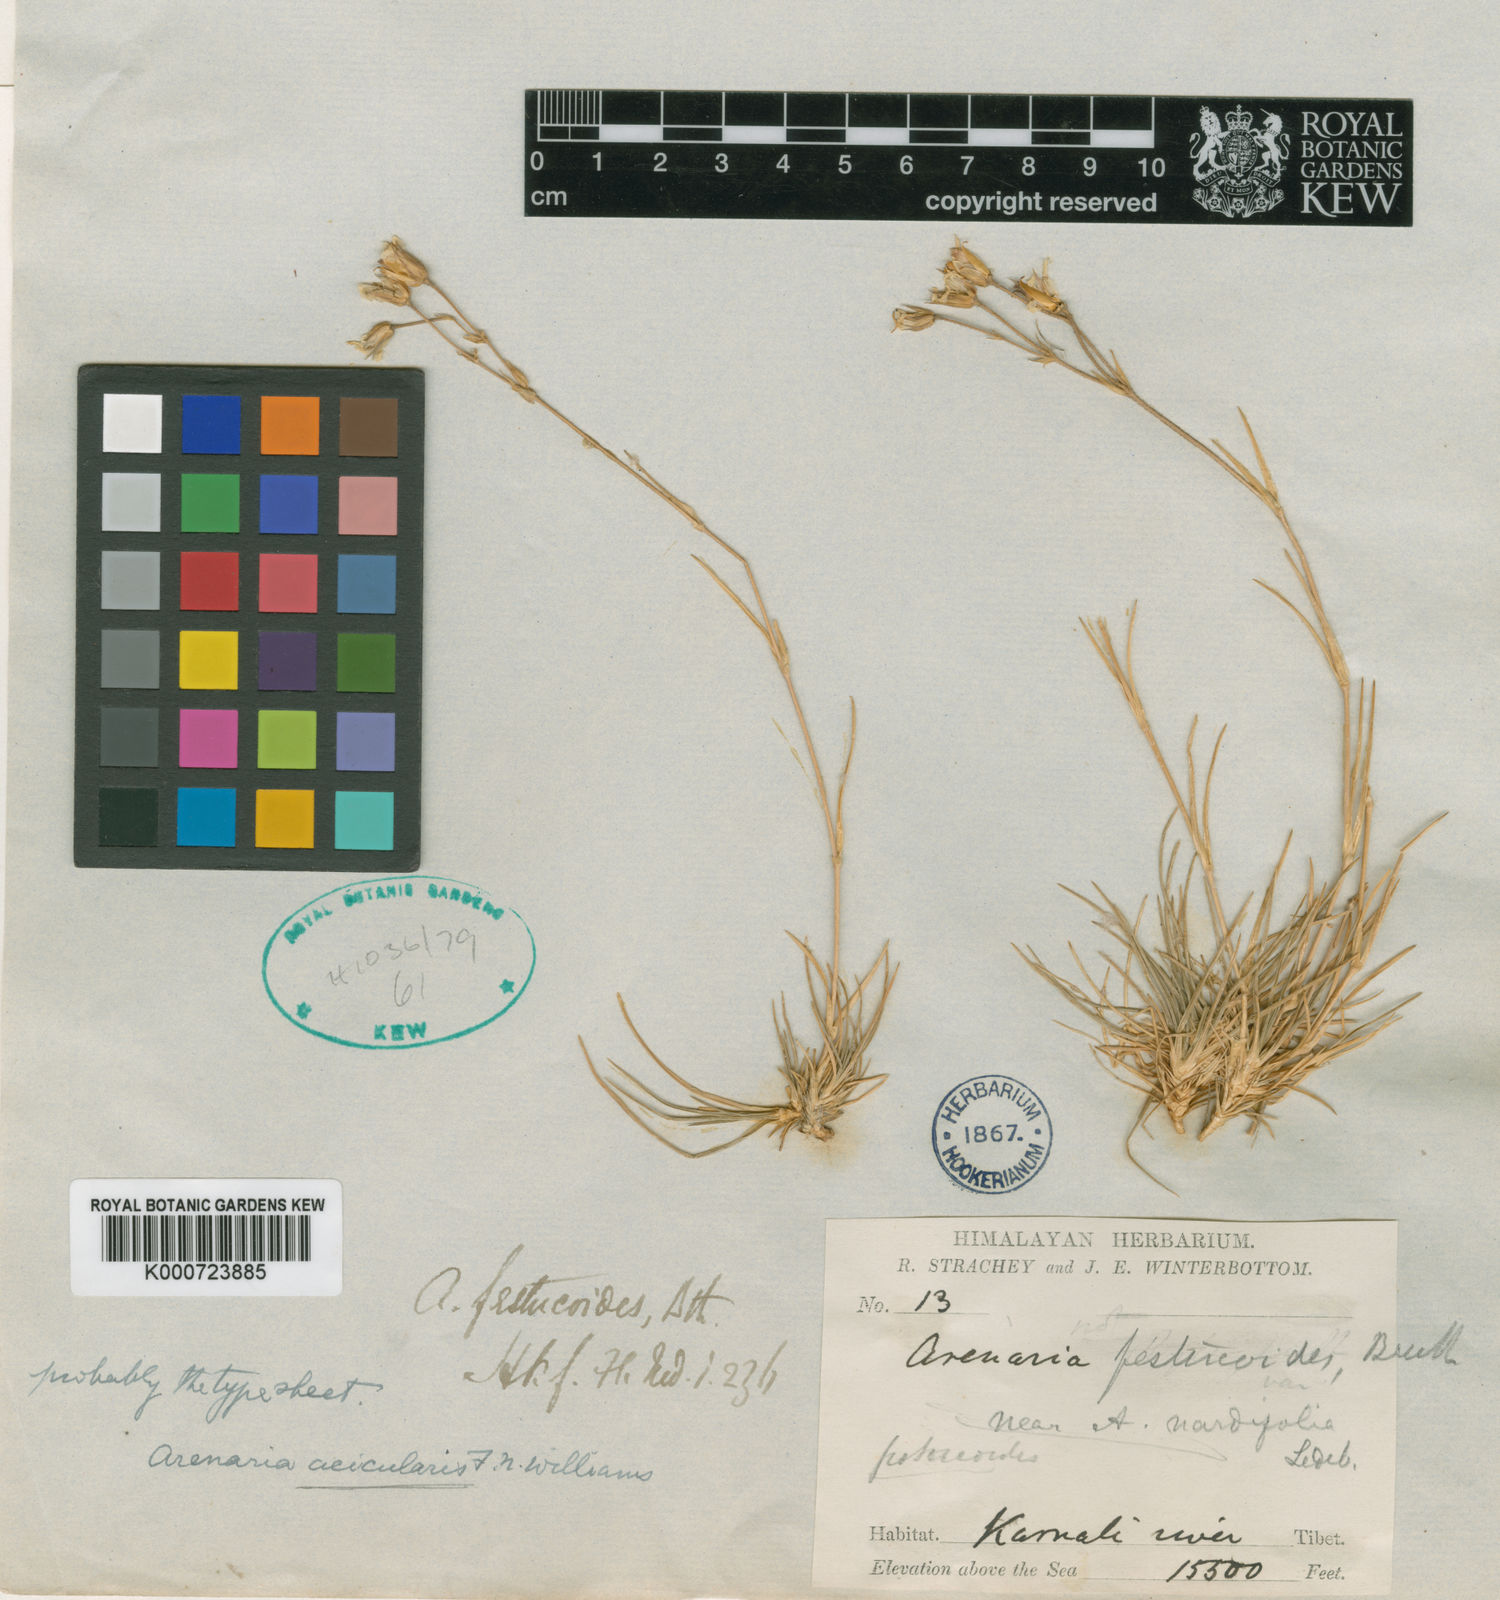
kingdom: Plantae
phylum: Tracheophyta
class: Magnoliopsida
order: Caryophyllales
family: Caryophyllaceae
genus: Eremogone
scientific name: Eremogone festucoides
